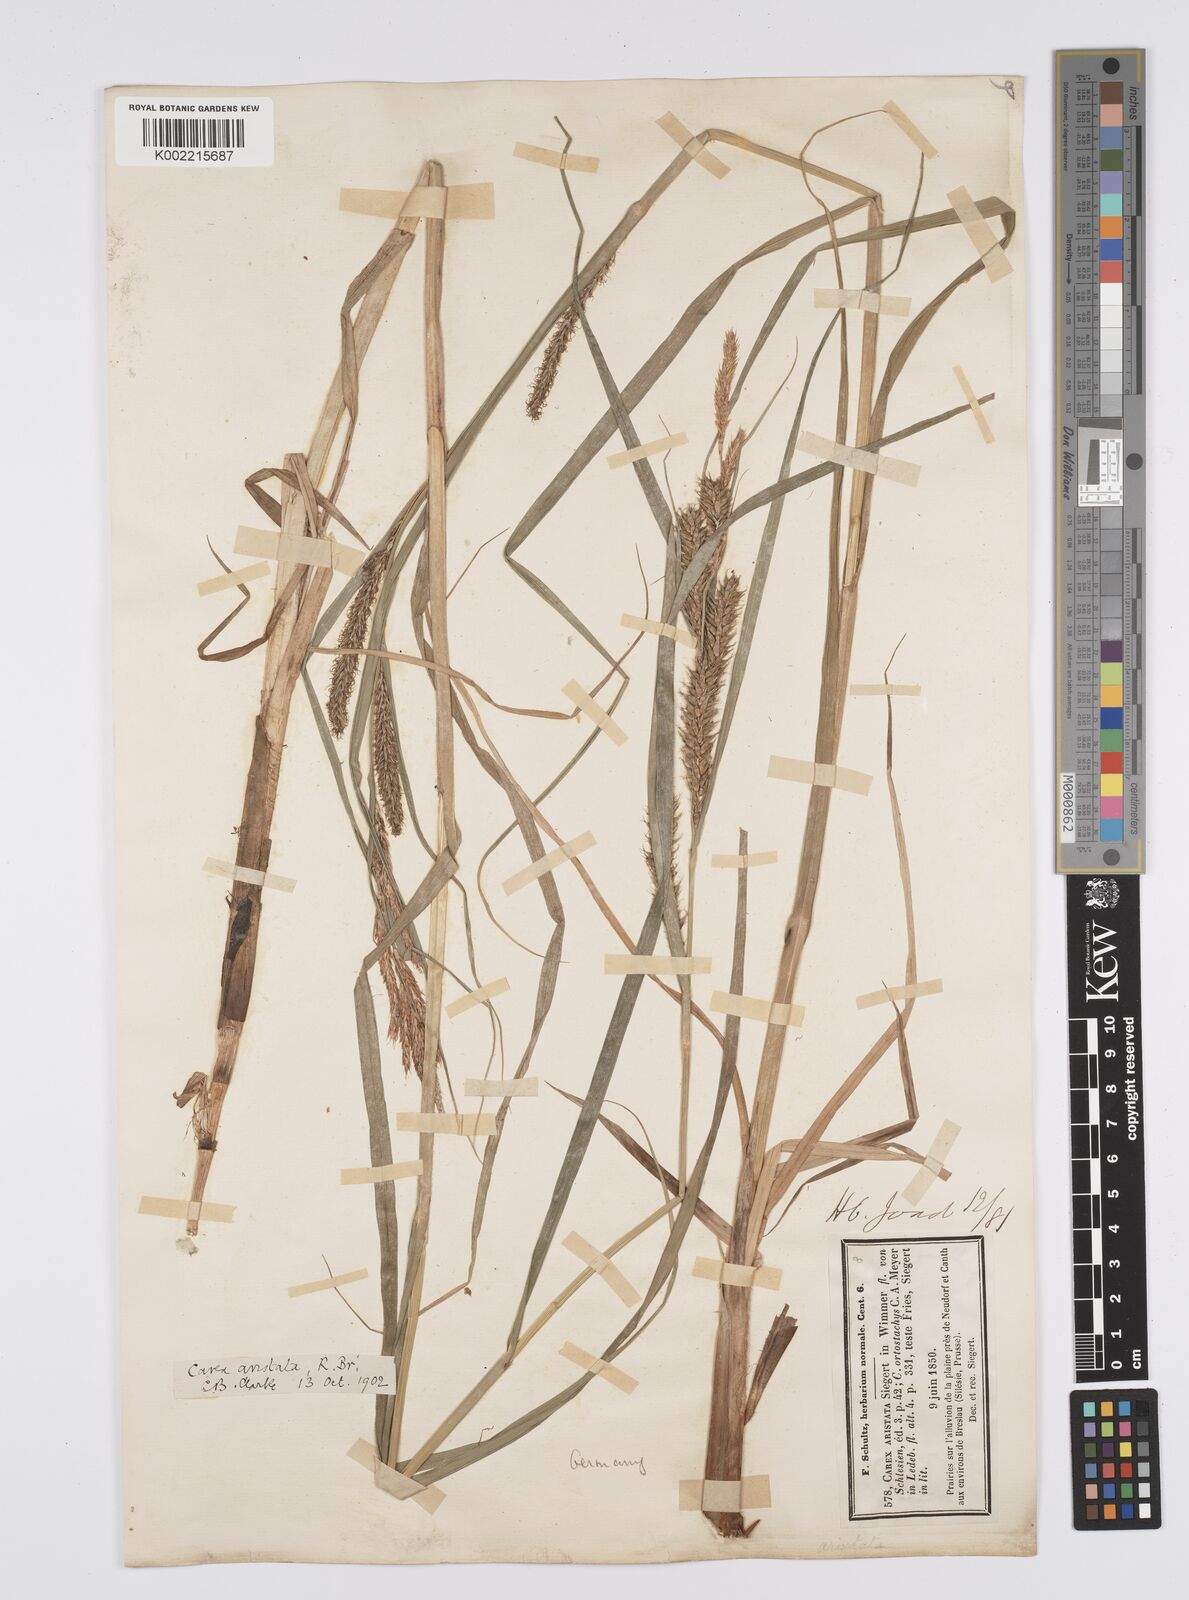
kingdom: Plantae
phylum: Tracheophyta
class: Liliopsida
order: Poales
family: Cyperaceae
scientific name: Cyperaceae
